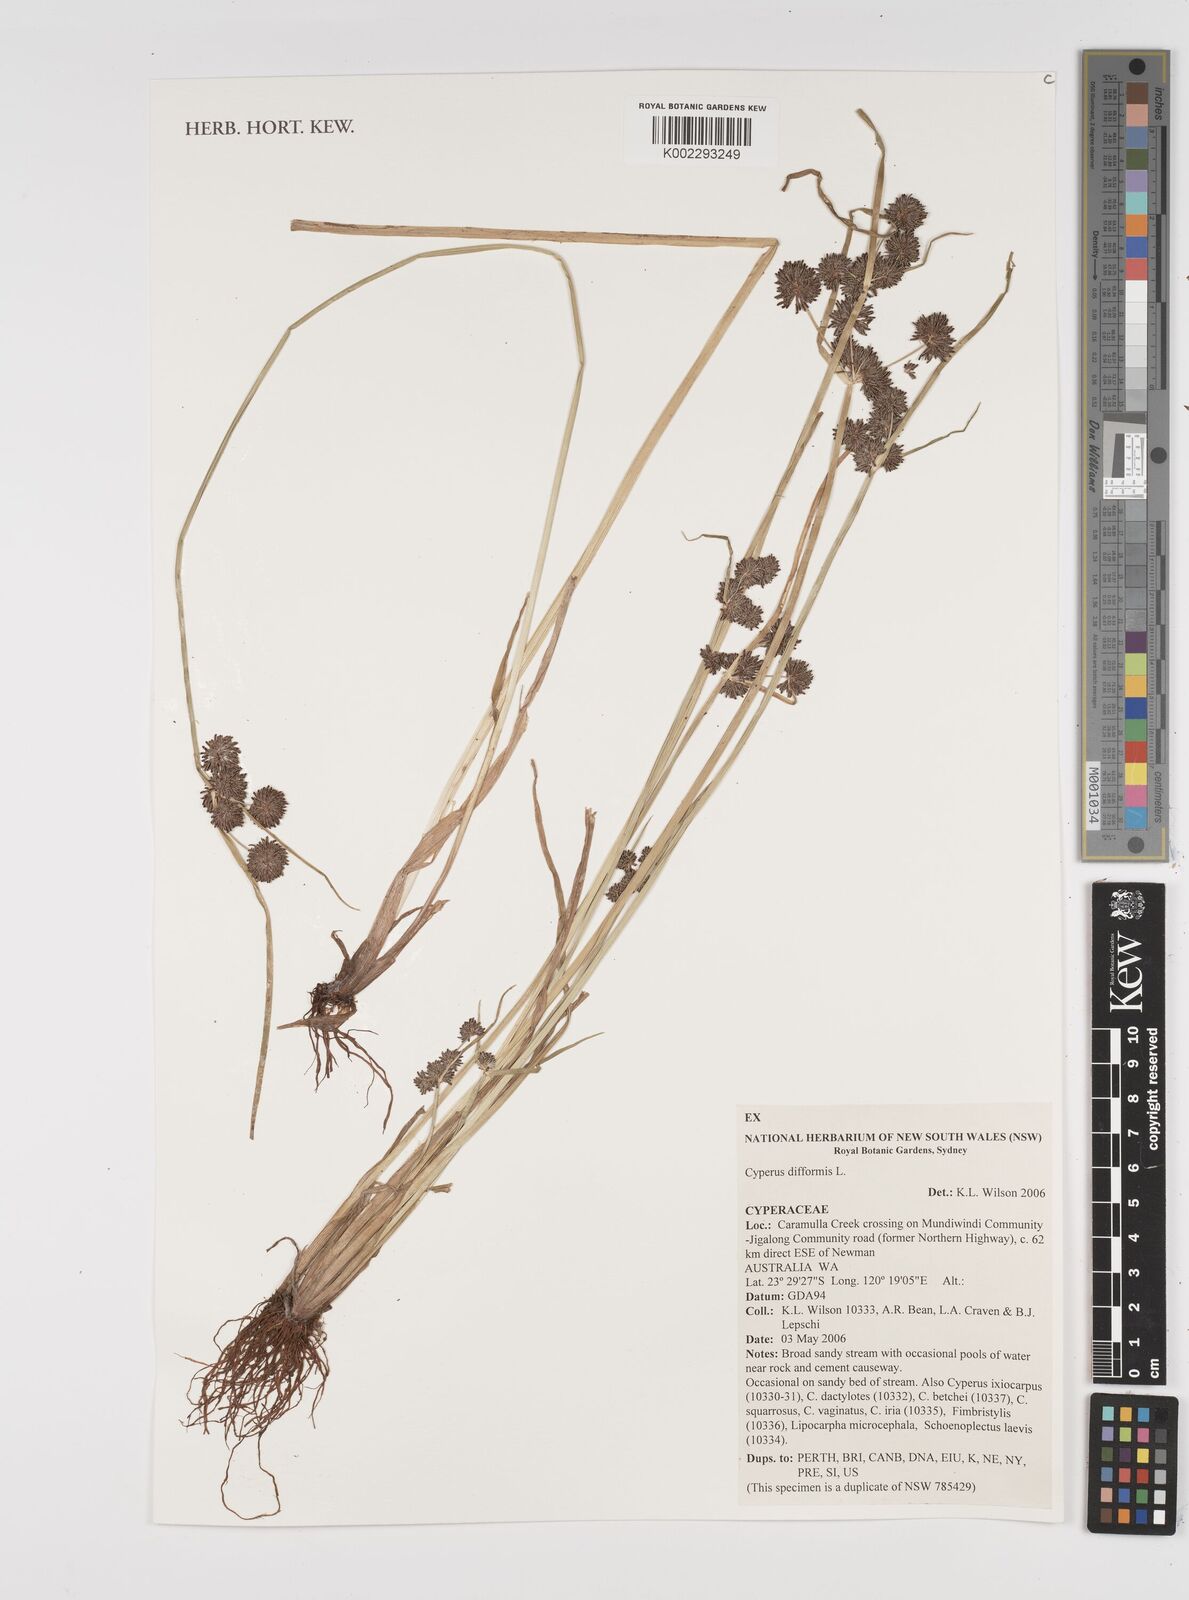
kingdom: Plantae
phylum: Tracheophyta
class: Liliopsida
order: Poales
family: Cyperaceae
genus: Cyperus
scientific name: Cyperus difformis
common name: Variable flatsedge
